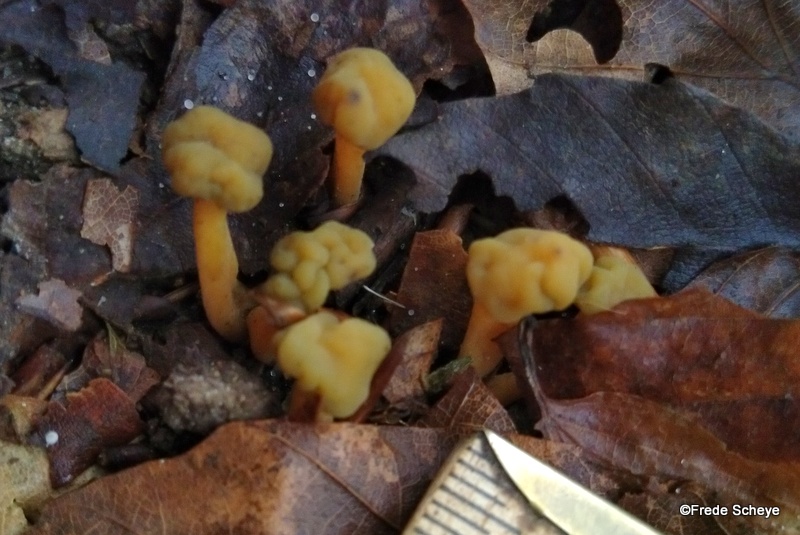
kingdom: Fungi
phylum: Ascomycota
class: Leotiomycetes
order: Leotiales
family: Leotiaceae
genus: Leotia
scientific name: Leotia lubrica
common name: ravsvamp
